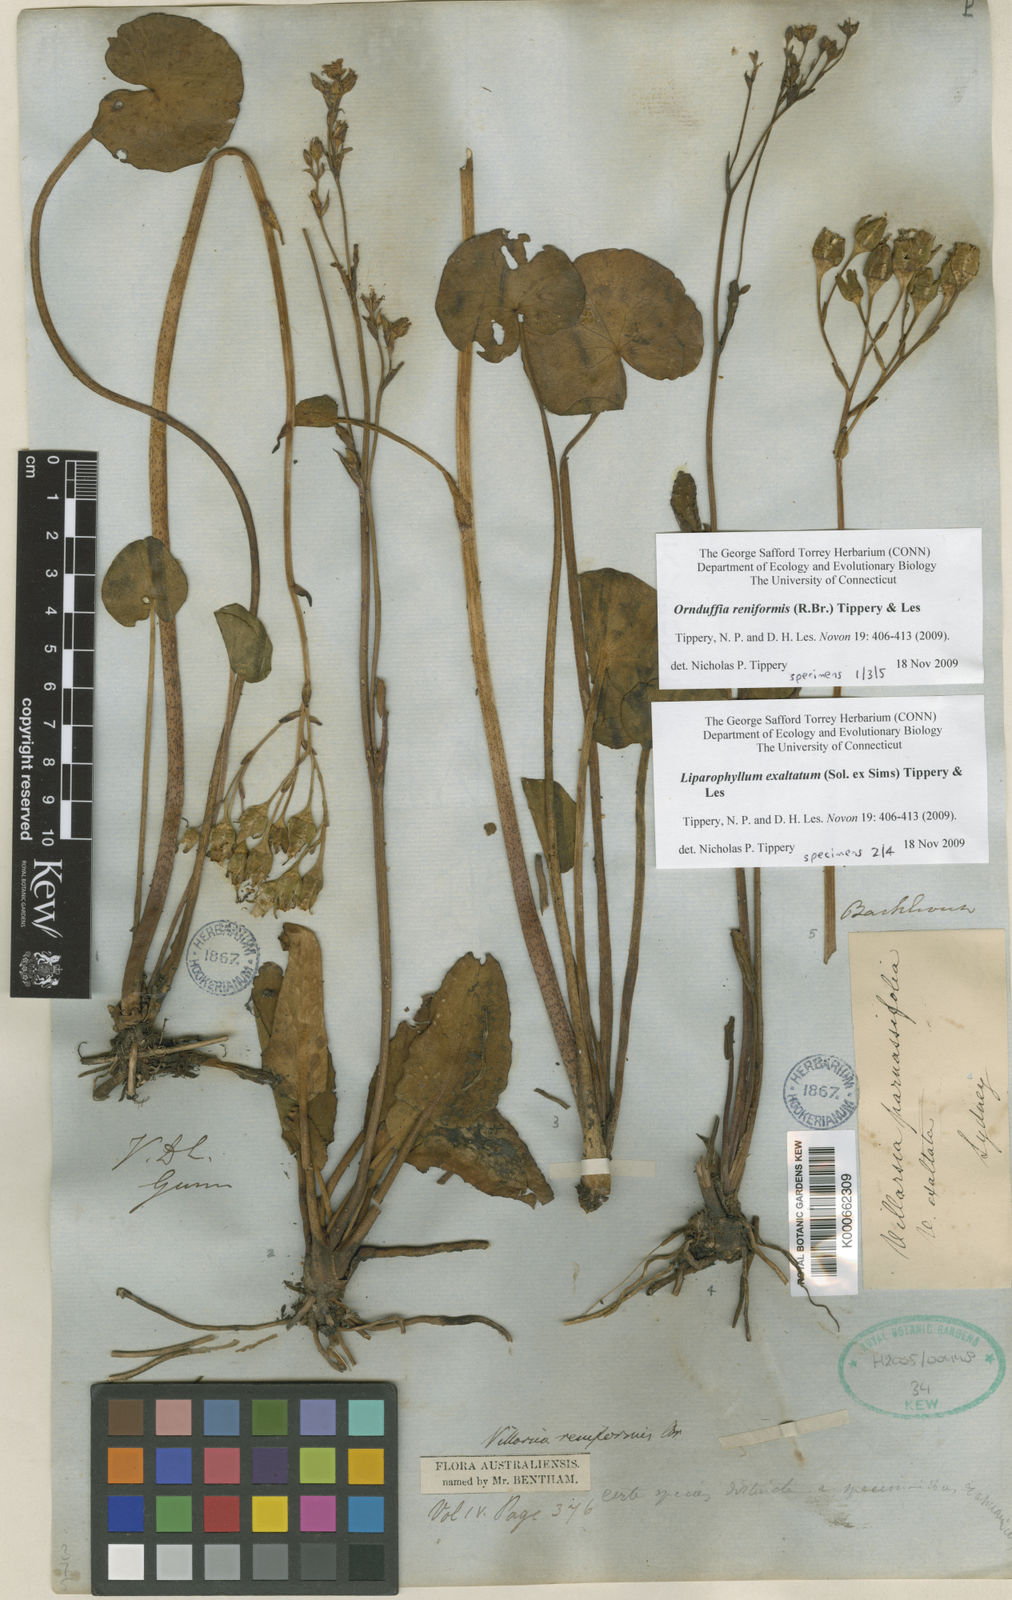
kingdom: Plantae
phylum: Tracheophyta
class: Magnoliopsida
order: Asterales
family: Menyanthaceae
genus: Liparophyllum
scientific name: Liparophyllum exaltatum
